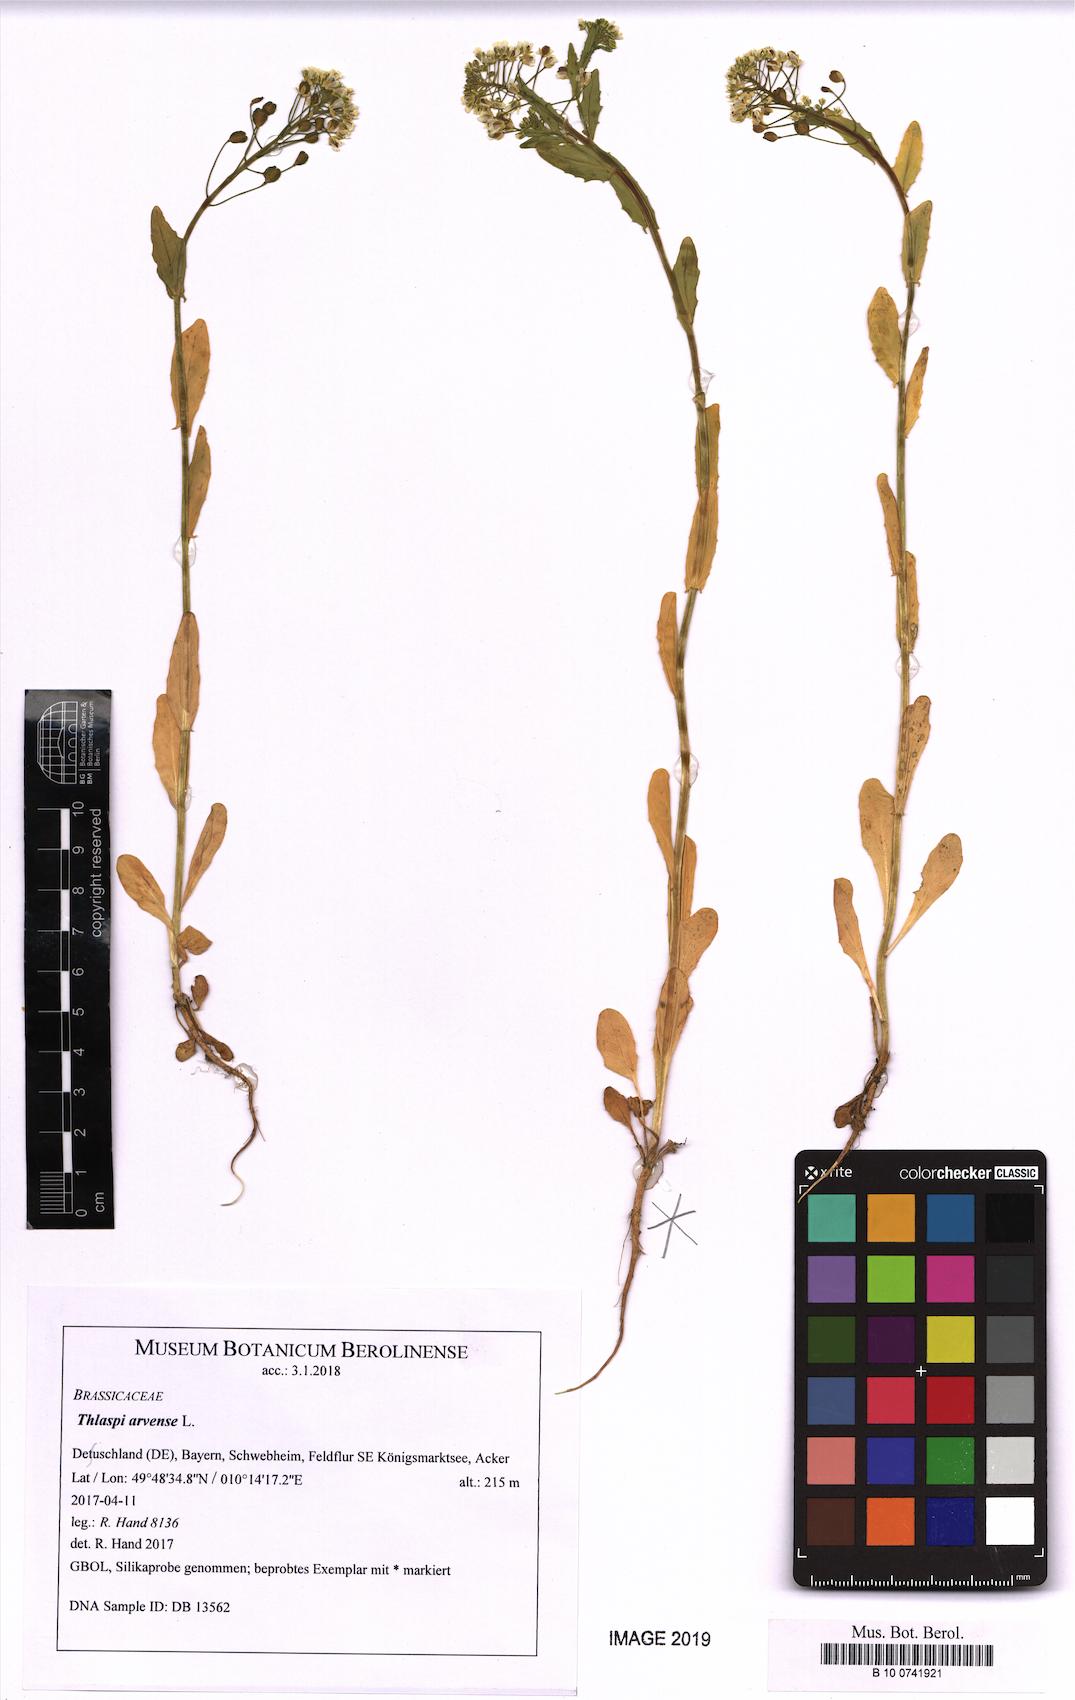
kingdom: Plantae
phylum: Tracheophyta
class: Magnoliopsida
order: Brassicales
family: Brassicaceae
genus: Thlaspi
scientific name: Thlaspi arvense
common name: Field pennycress
